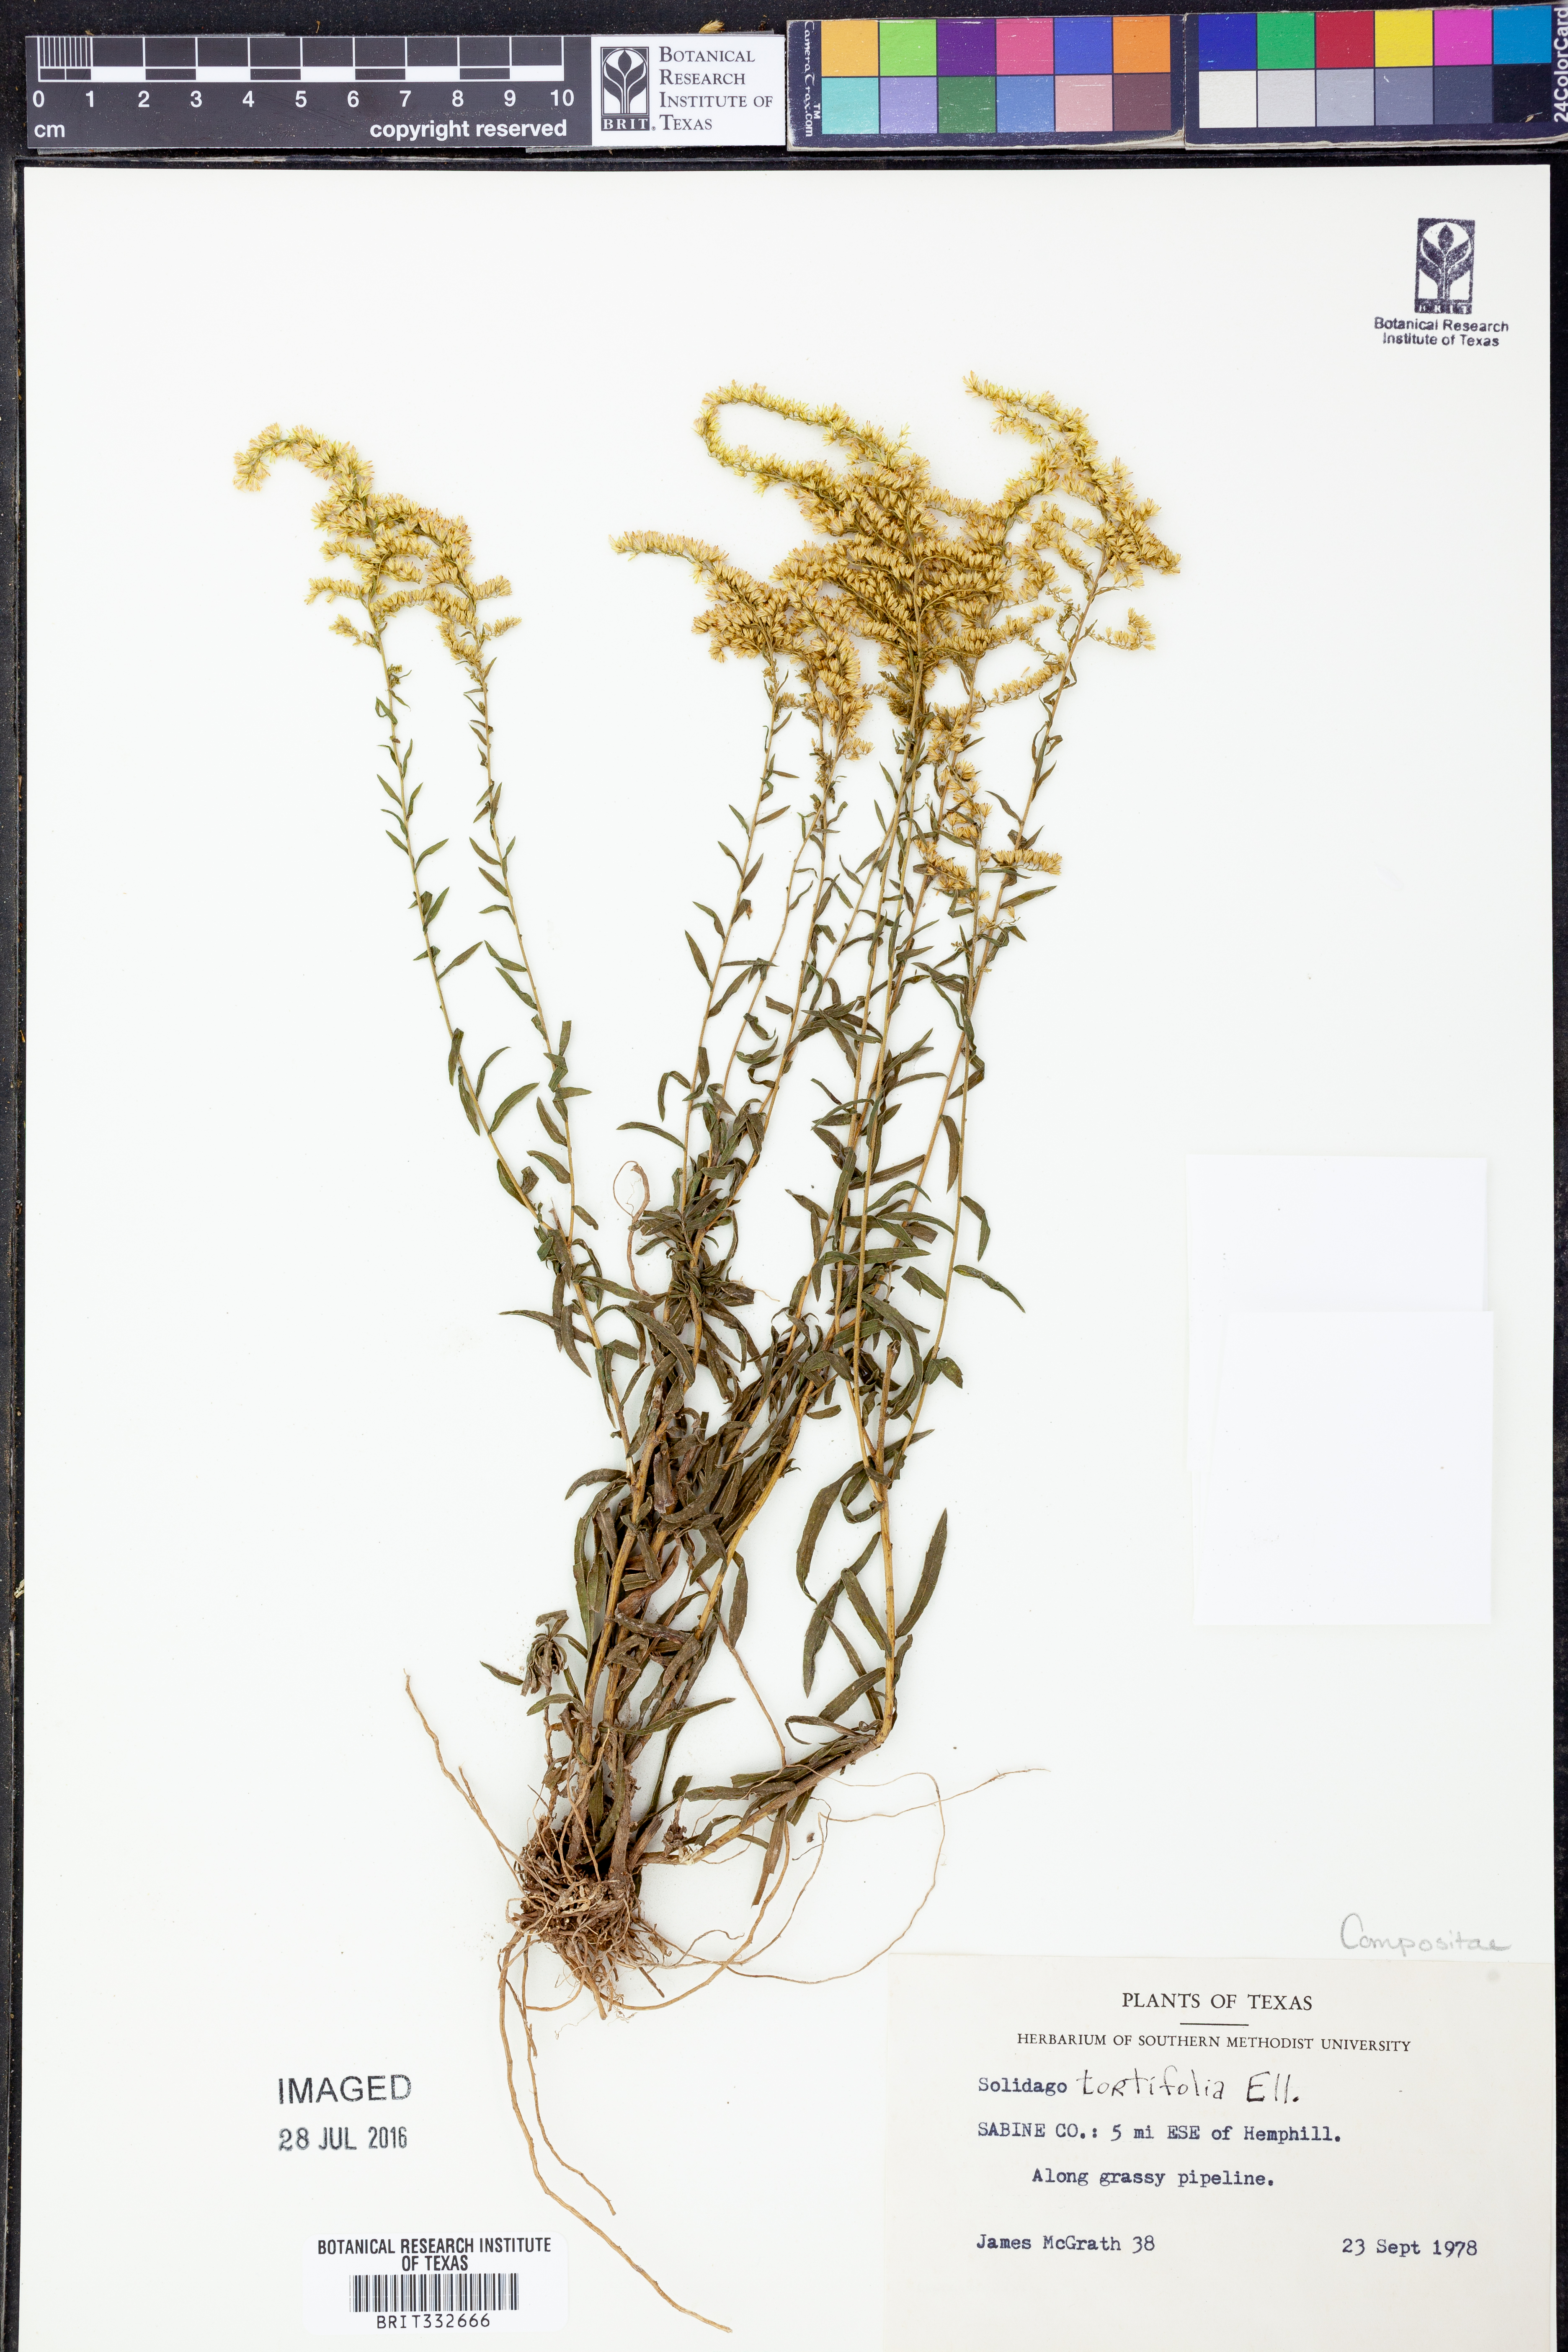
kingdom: Plantae
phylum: Tracheophyta
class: Magnoliopsida
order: Asterales
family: Asteraceae
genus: Solidago
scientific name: Solidago tortifolia
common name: Twisted-leaf goldenrod
